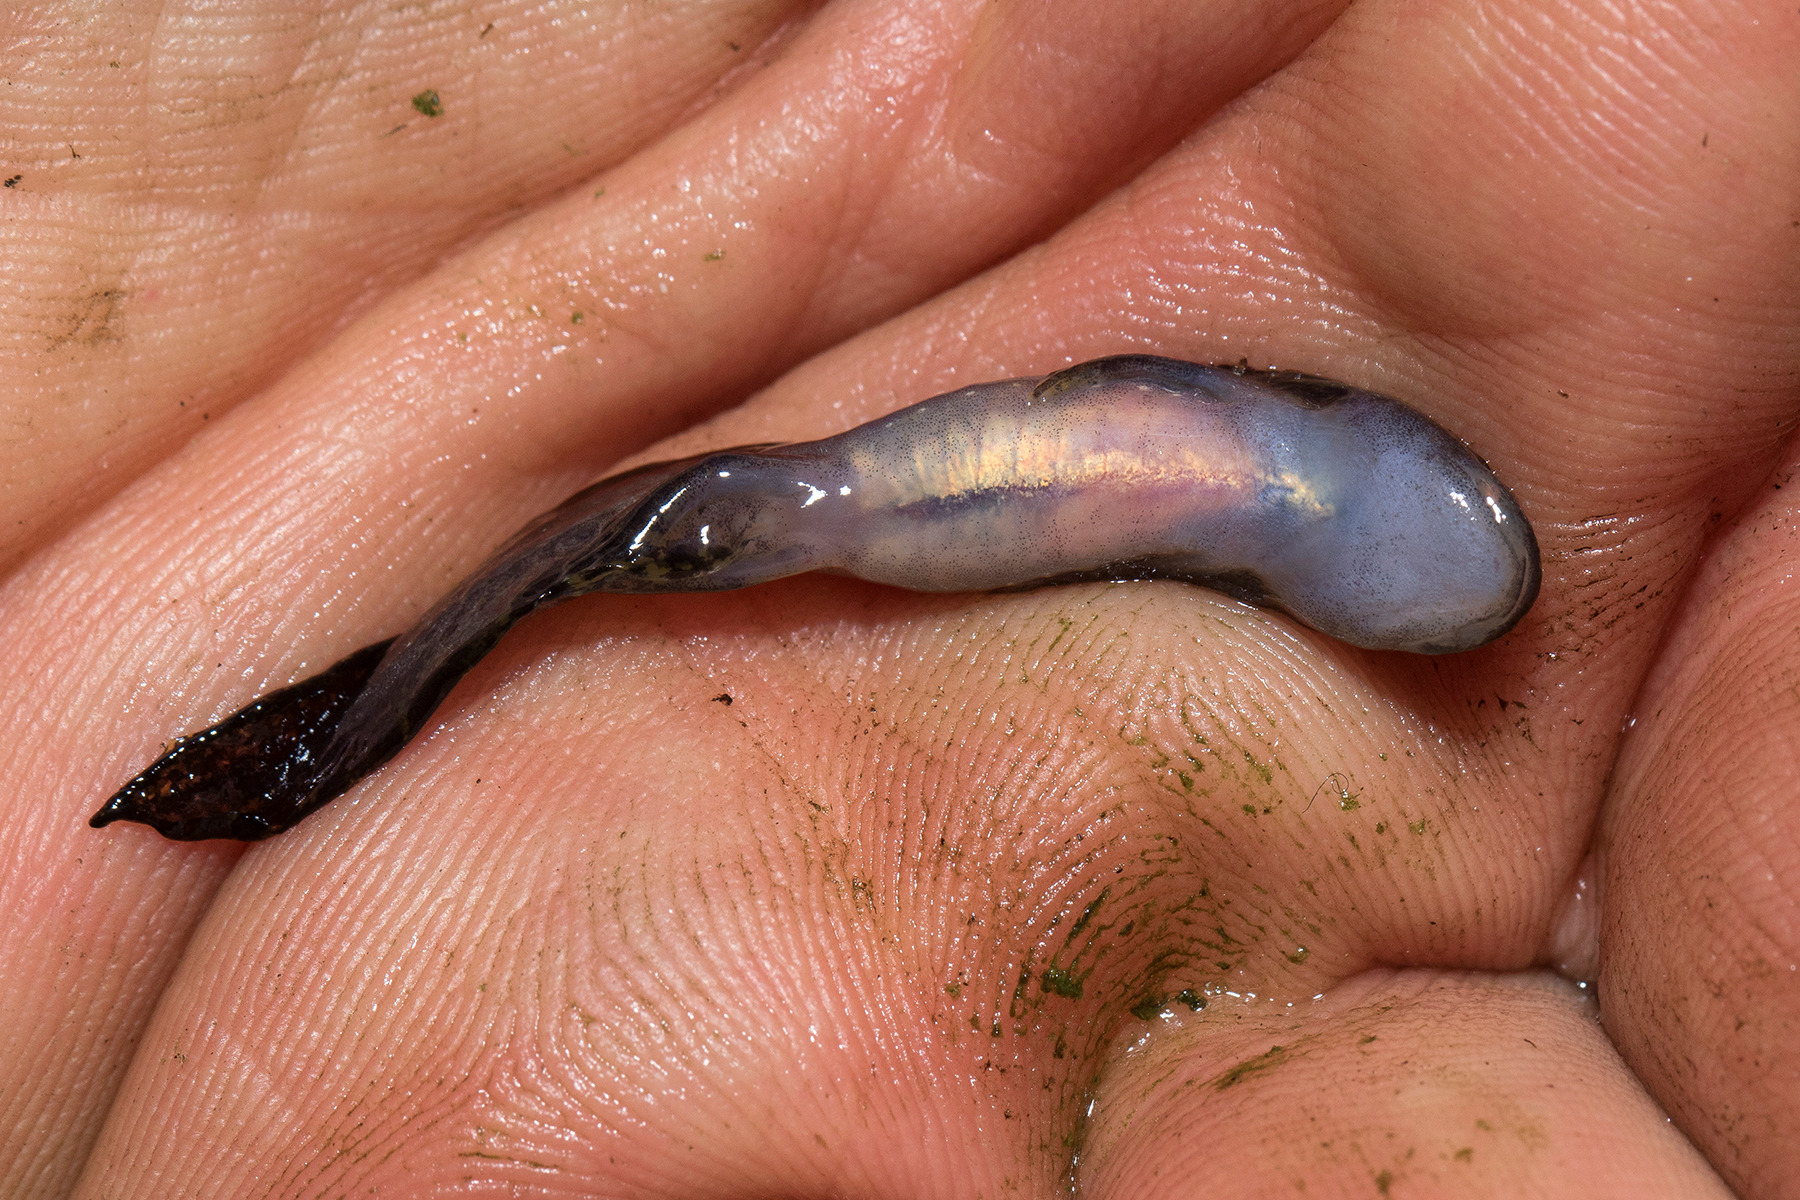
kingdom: Animalia
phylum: Chordata
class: Amphibia
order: Caudata
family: Salamandridae
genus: Ichthyosaura
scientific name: Ichthyosaura alpestris
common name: Bjergsalamander
